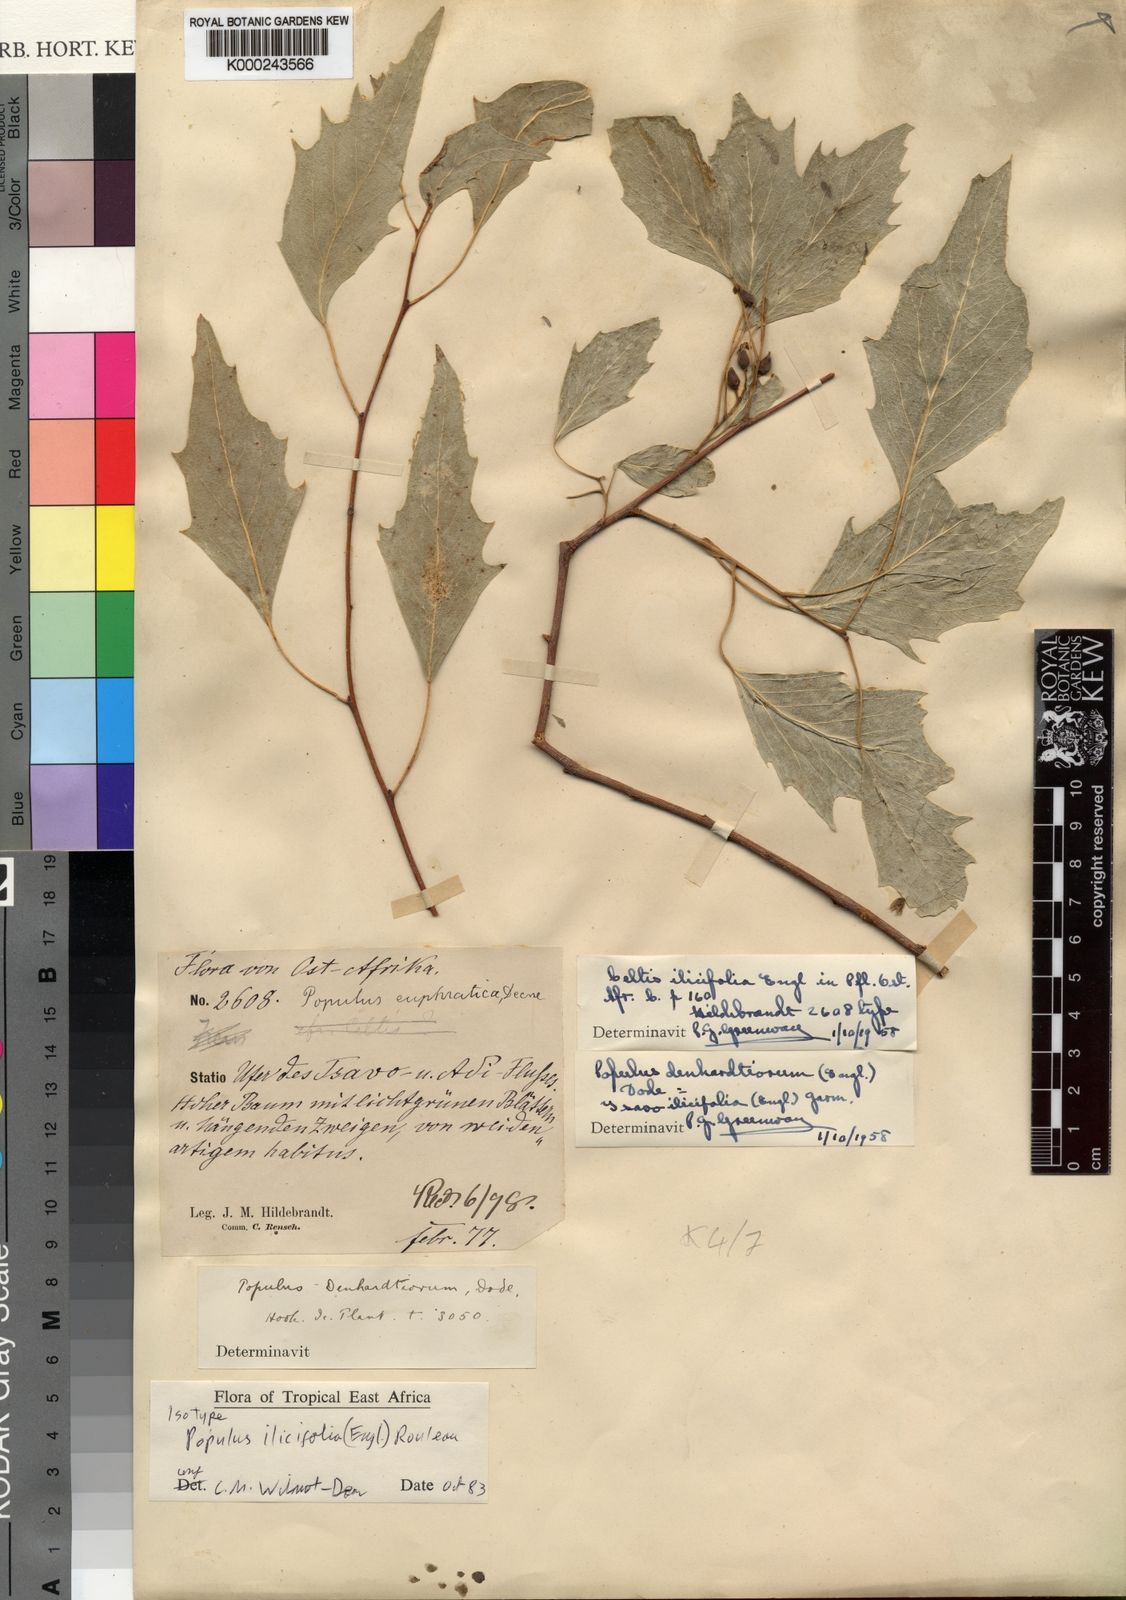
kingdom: Plantae
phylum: Tracheophyta
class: Magnoliopsida
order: Malpighiales
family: Salicaceae
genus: Populus
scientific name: Populus ilicifolia
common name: Tana river poplar
